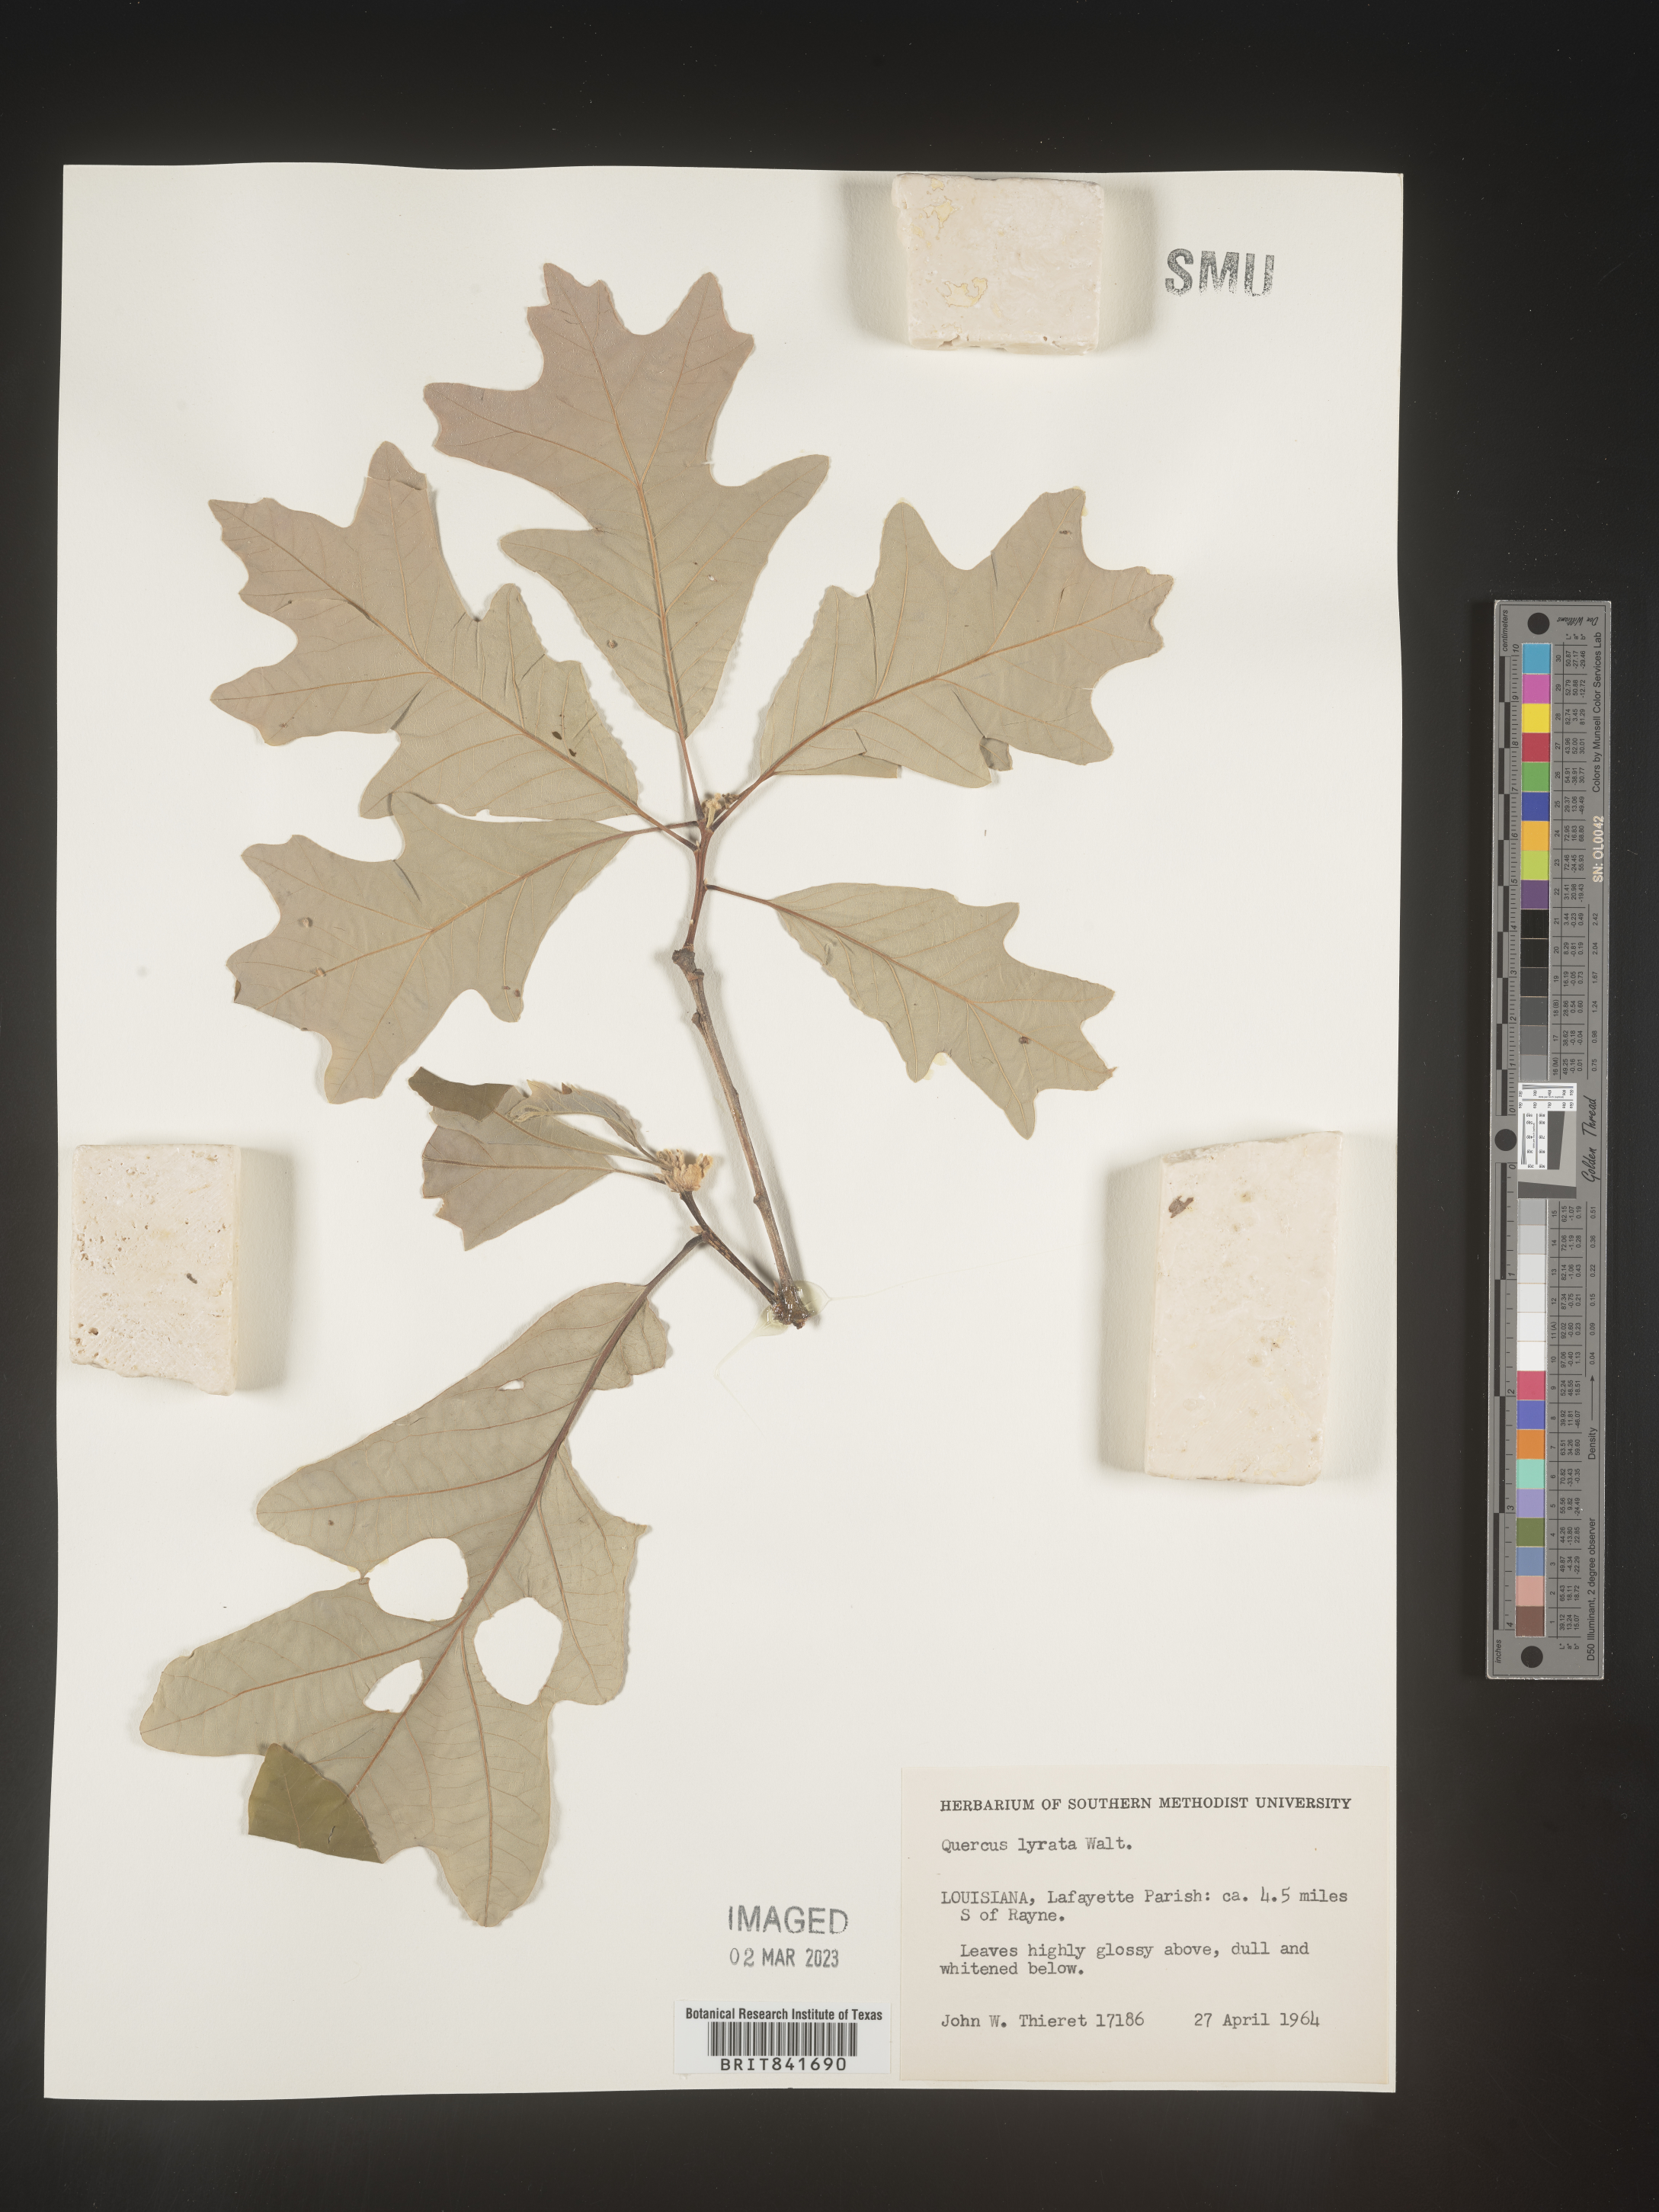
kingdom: Plantae
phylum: Tracheophyta
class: Magnoliopsida
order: Fagales
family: Fagaceae
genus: Quercus
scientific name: Quercus lyrata
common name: Overcup oak
